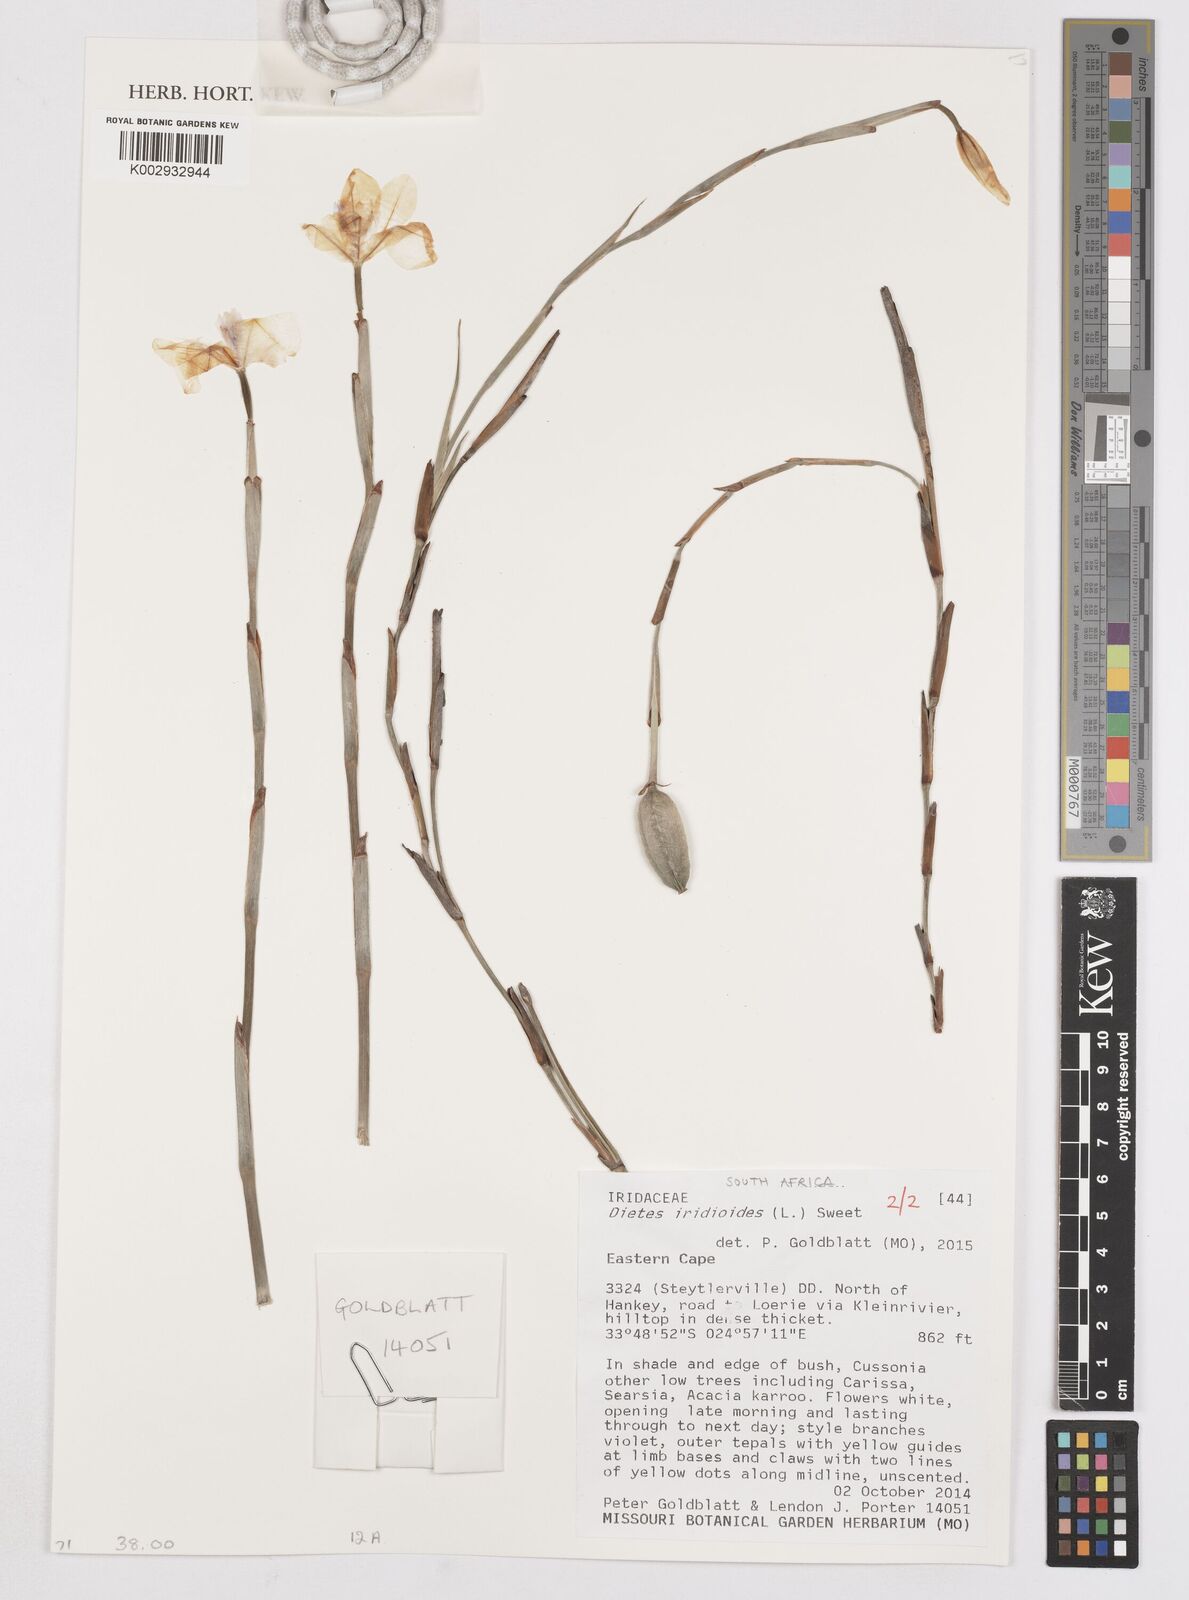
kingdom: Plantae
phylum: Tracheophyta
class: Liliopsida
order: Asparagales
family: Iridaceae
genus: Dietes
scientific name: Dietes iridioides
